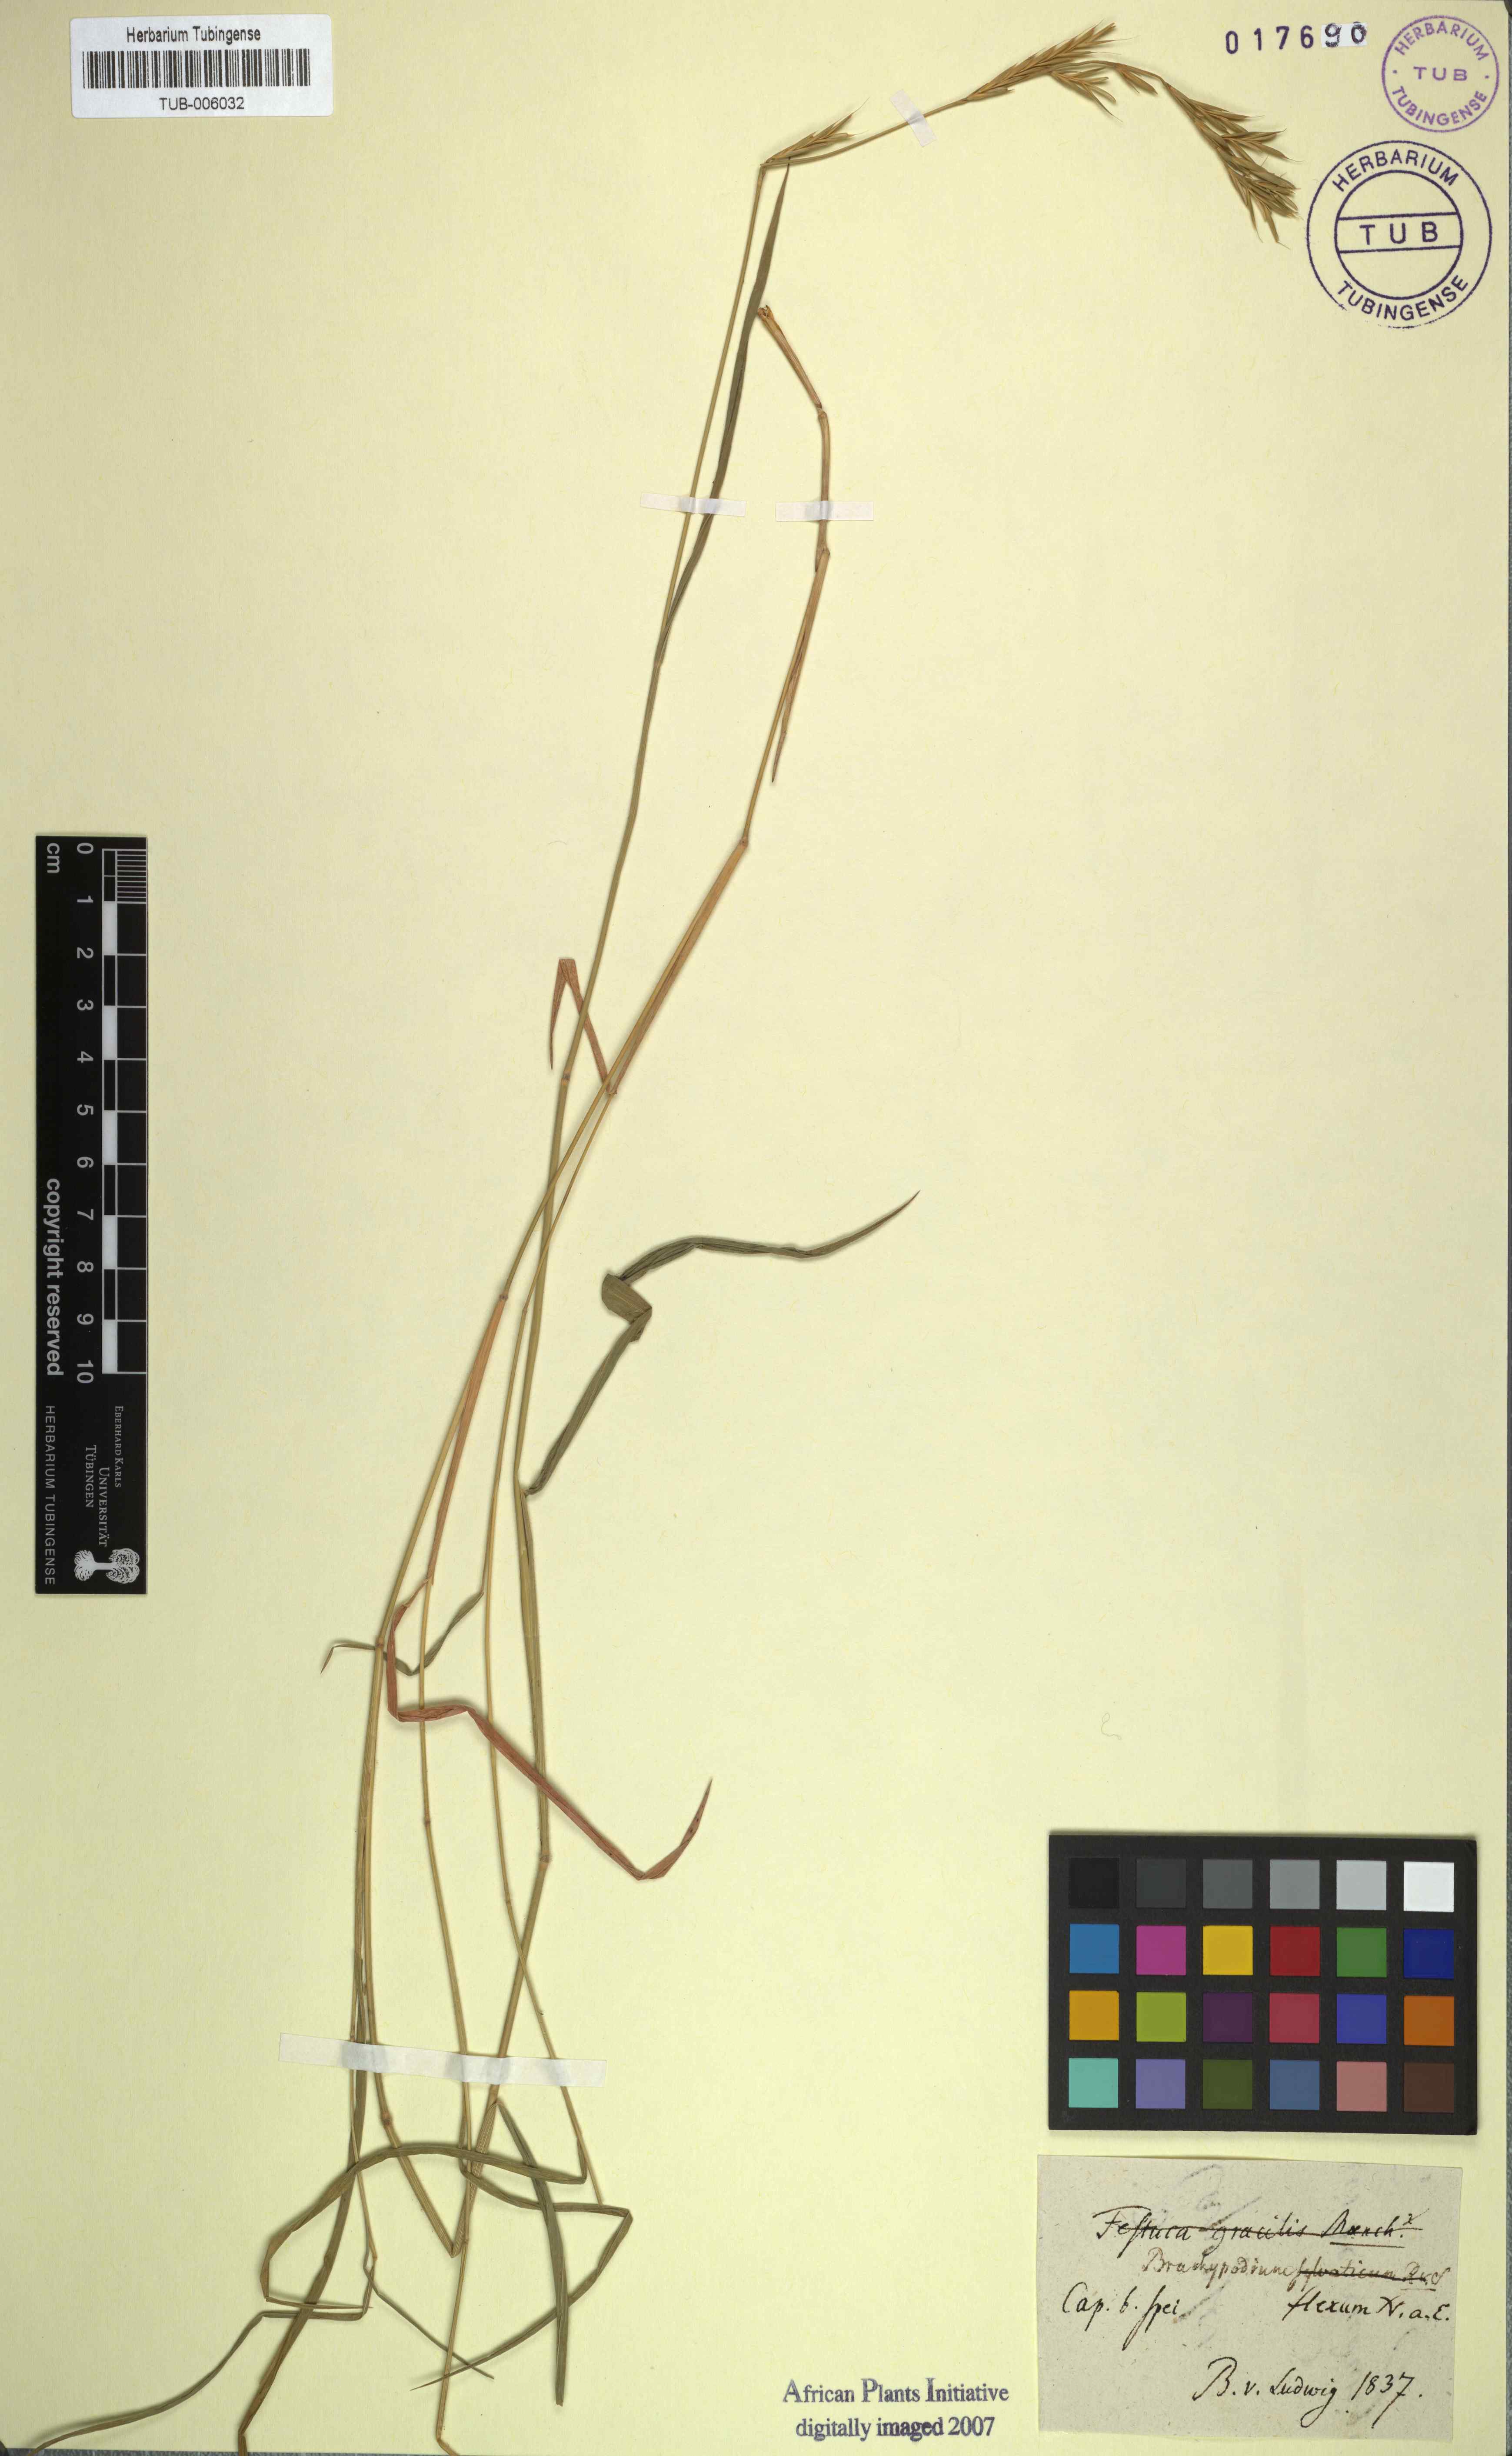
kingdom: Plantae
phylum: Tracheophyta
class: Liliopsida
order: Poales
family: Poaceae
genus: Brachypodium
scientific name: Brachypodium flexum
